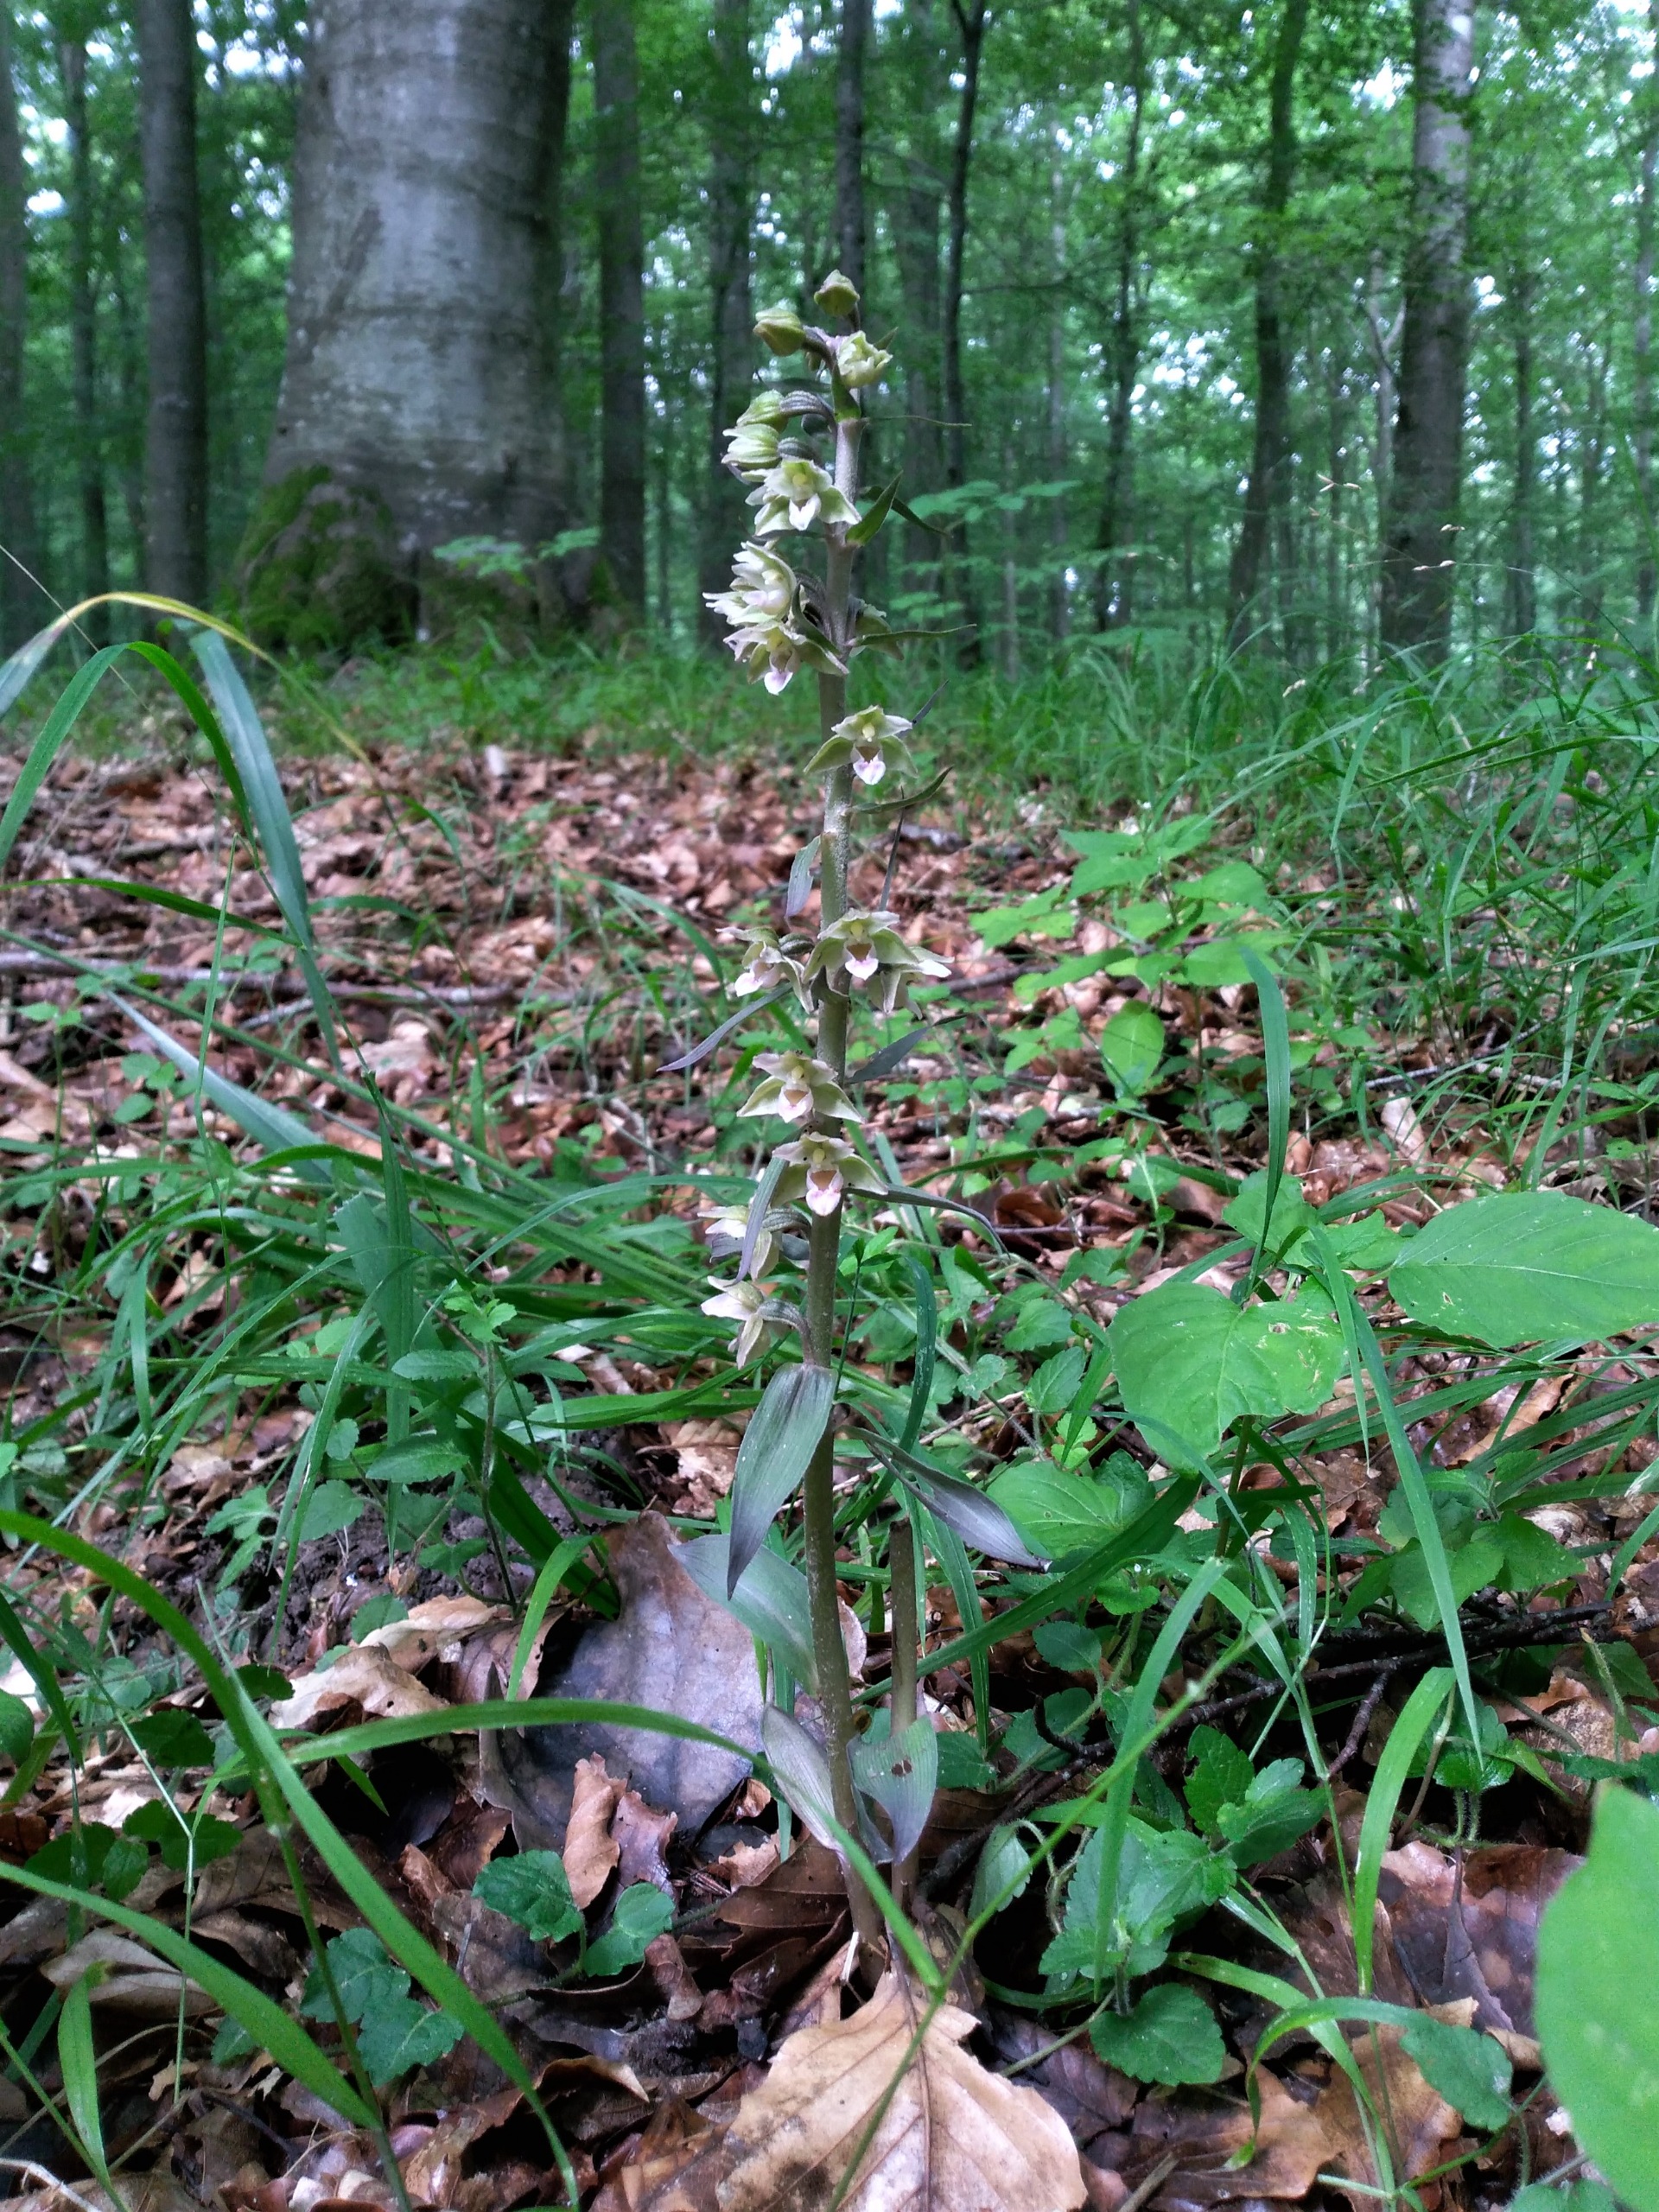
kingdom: Plantae
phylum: Tracheophyta
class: Liliopsida
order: Asparagales
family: Orchidaceae
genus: Epipactis
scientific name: Epipactis purpurata
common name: Tætblomstret hullæbe
